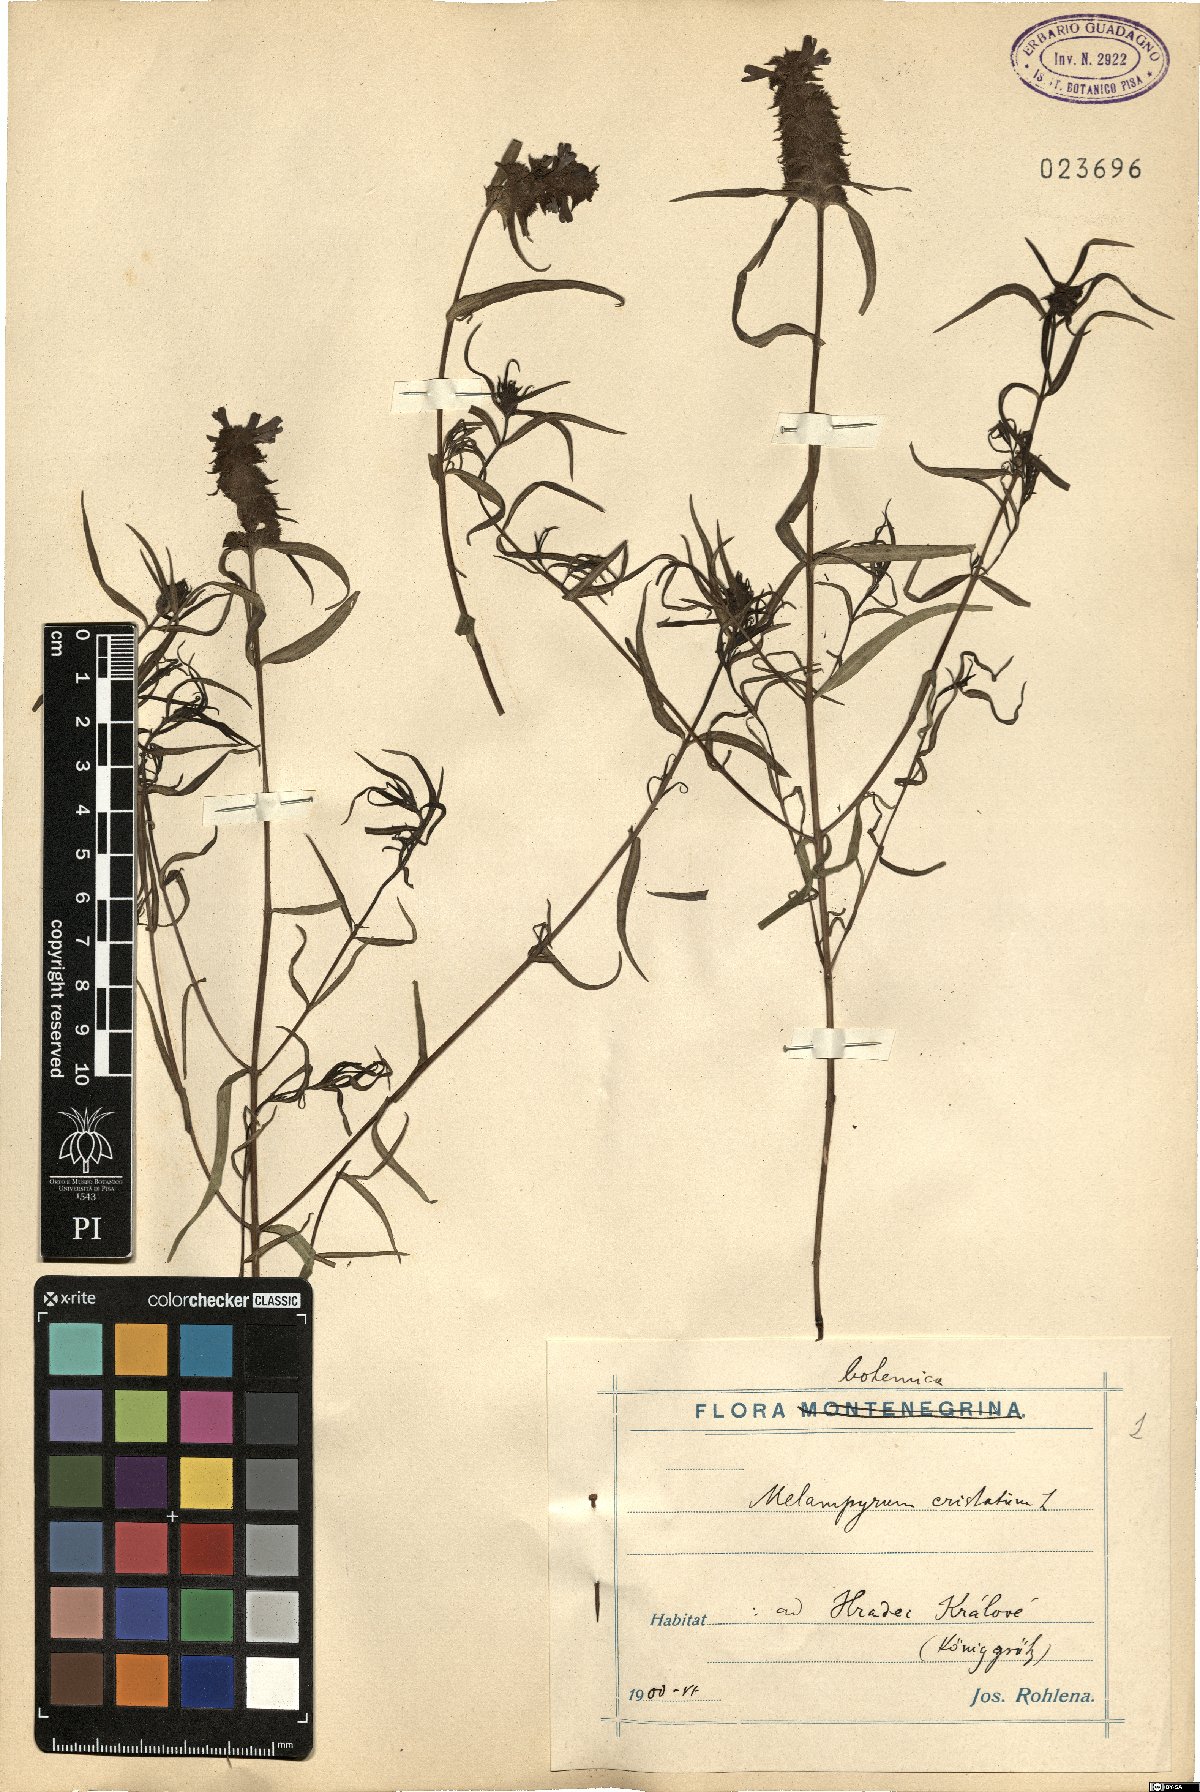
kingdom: Plantae
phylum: Tracheophyta
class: Magnoliopsida
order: Lamiales
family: Orobanchaceae
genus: Melampyrum
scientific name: Melampyrum cristatum
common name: Crested cow-wheat
